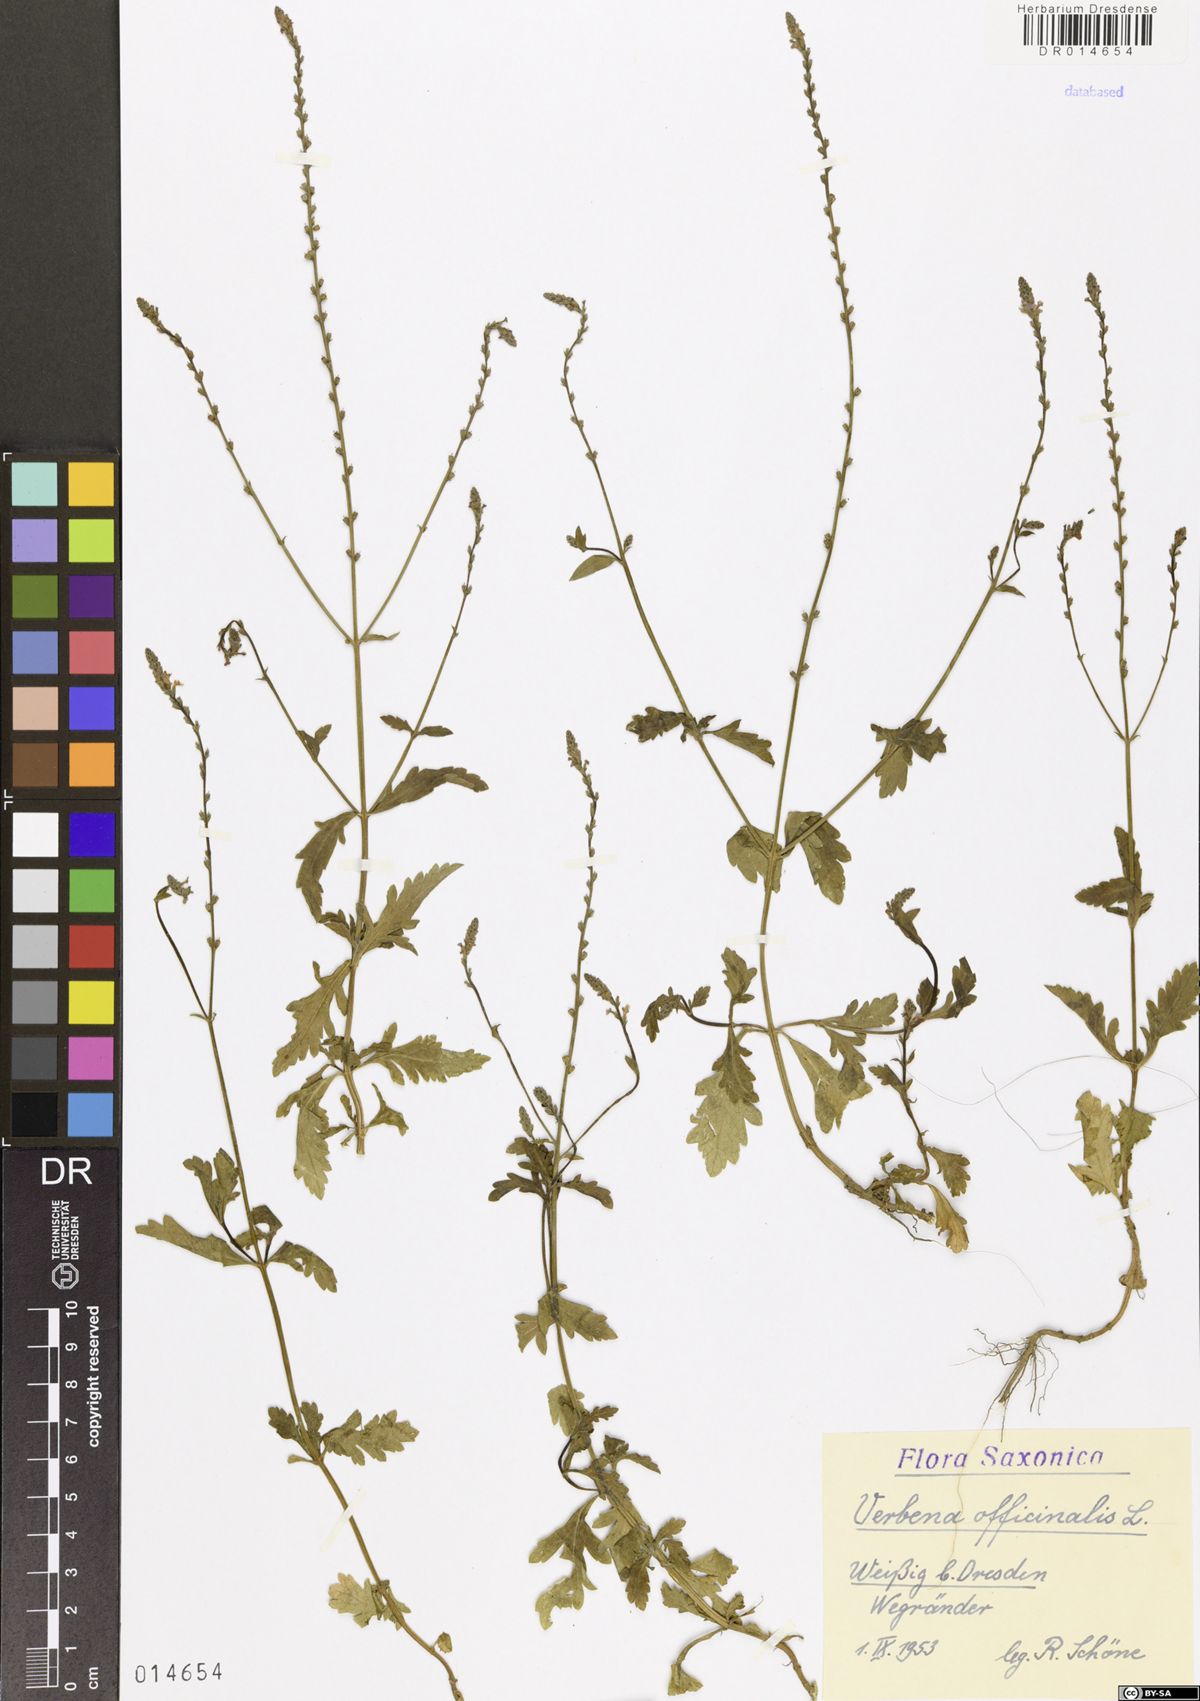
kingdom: Plantae
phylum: Tracheophyta
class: Magnoliopsida
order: Lamiales
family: Verbenaceae
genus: Verbena
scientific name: Verbena officinalis
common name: Vervain
